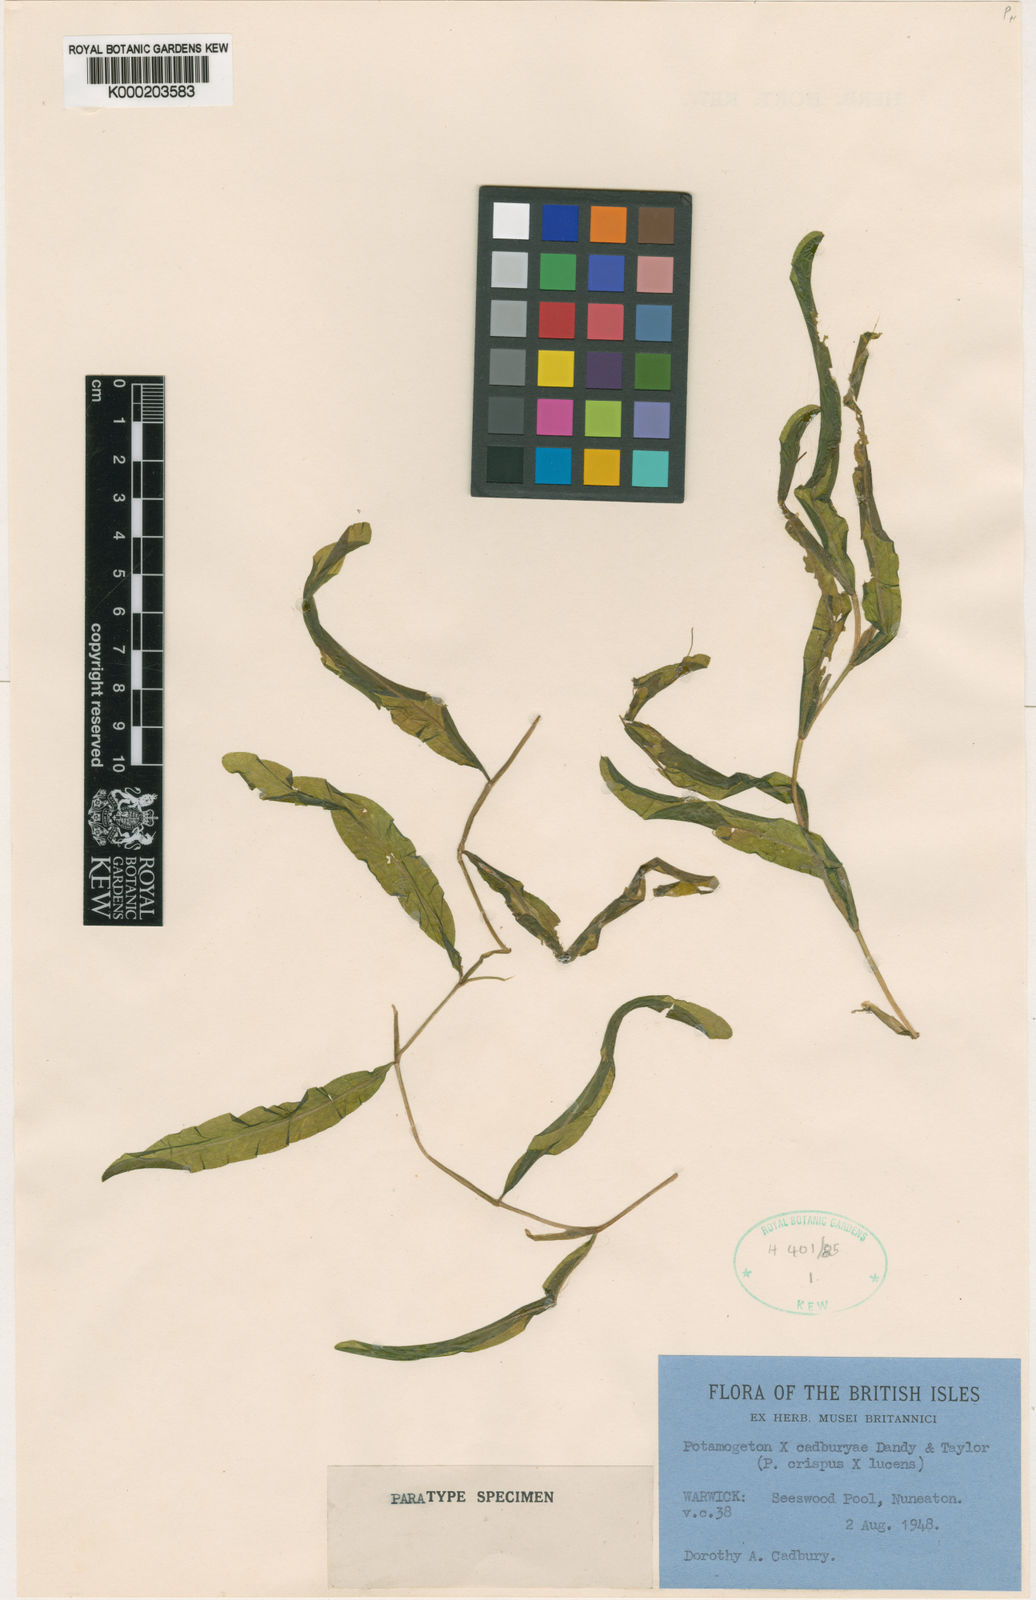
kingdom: Plantae
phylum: Tracheophyta
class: Liliopsida
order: Alismatales
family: Potamogetonaceae
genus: Potamogeton
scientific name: Potamogeton crispus
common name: Curled pondweed
